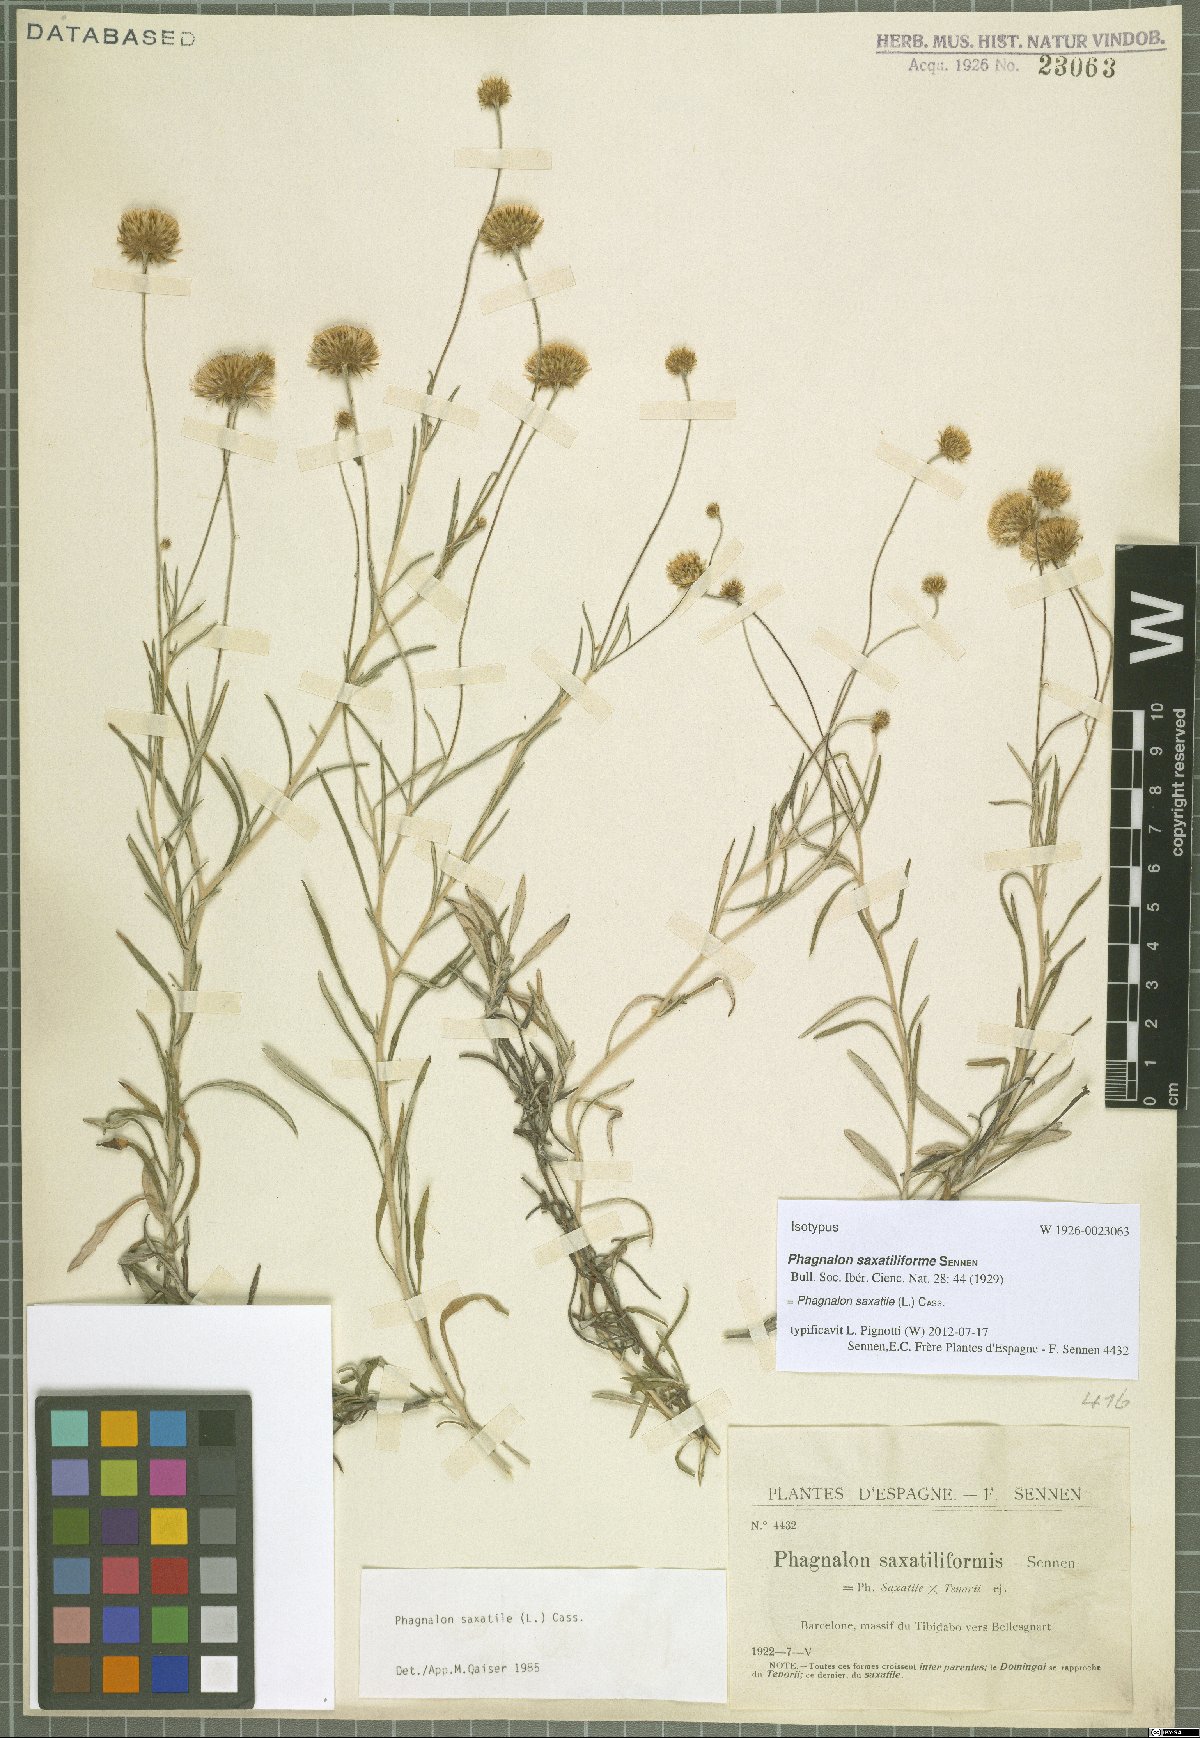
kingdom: Plantae
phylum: Tracheophyta
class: Magnoliopsida
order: Asterales
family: Asteraceae
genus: Phagnalon
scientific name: Phagnalon saxatile
